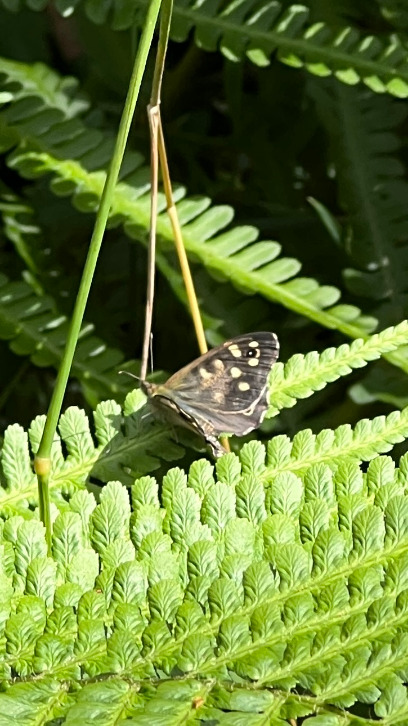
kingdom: Animalia
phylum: Arthropoda
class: Insecta
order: Lepidoptera
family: Nymphalidae
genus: Pararge
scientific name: Pararge aegeria
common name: Skovrandøje
